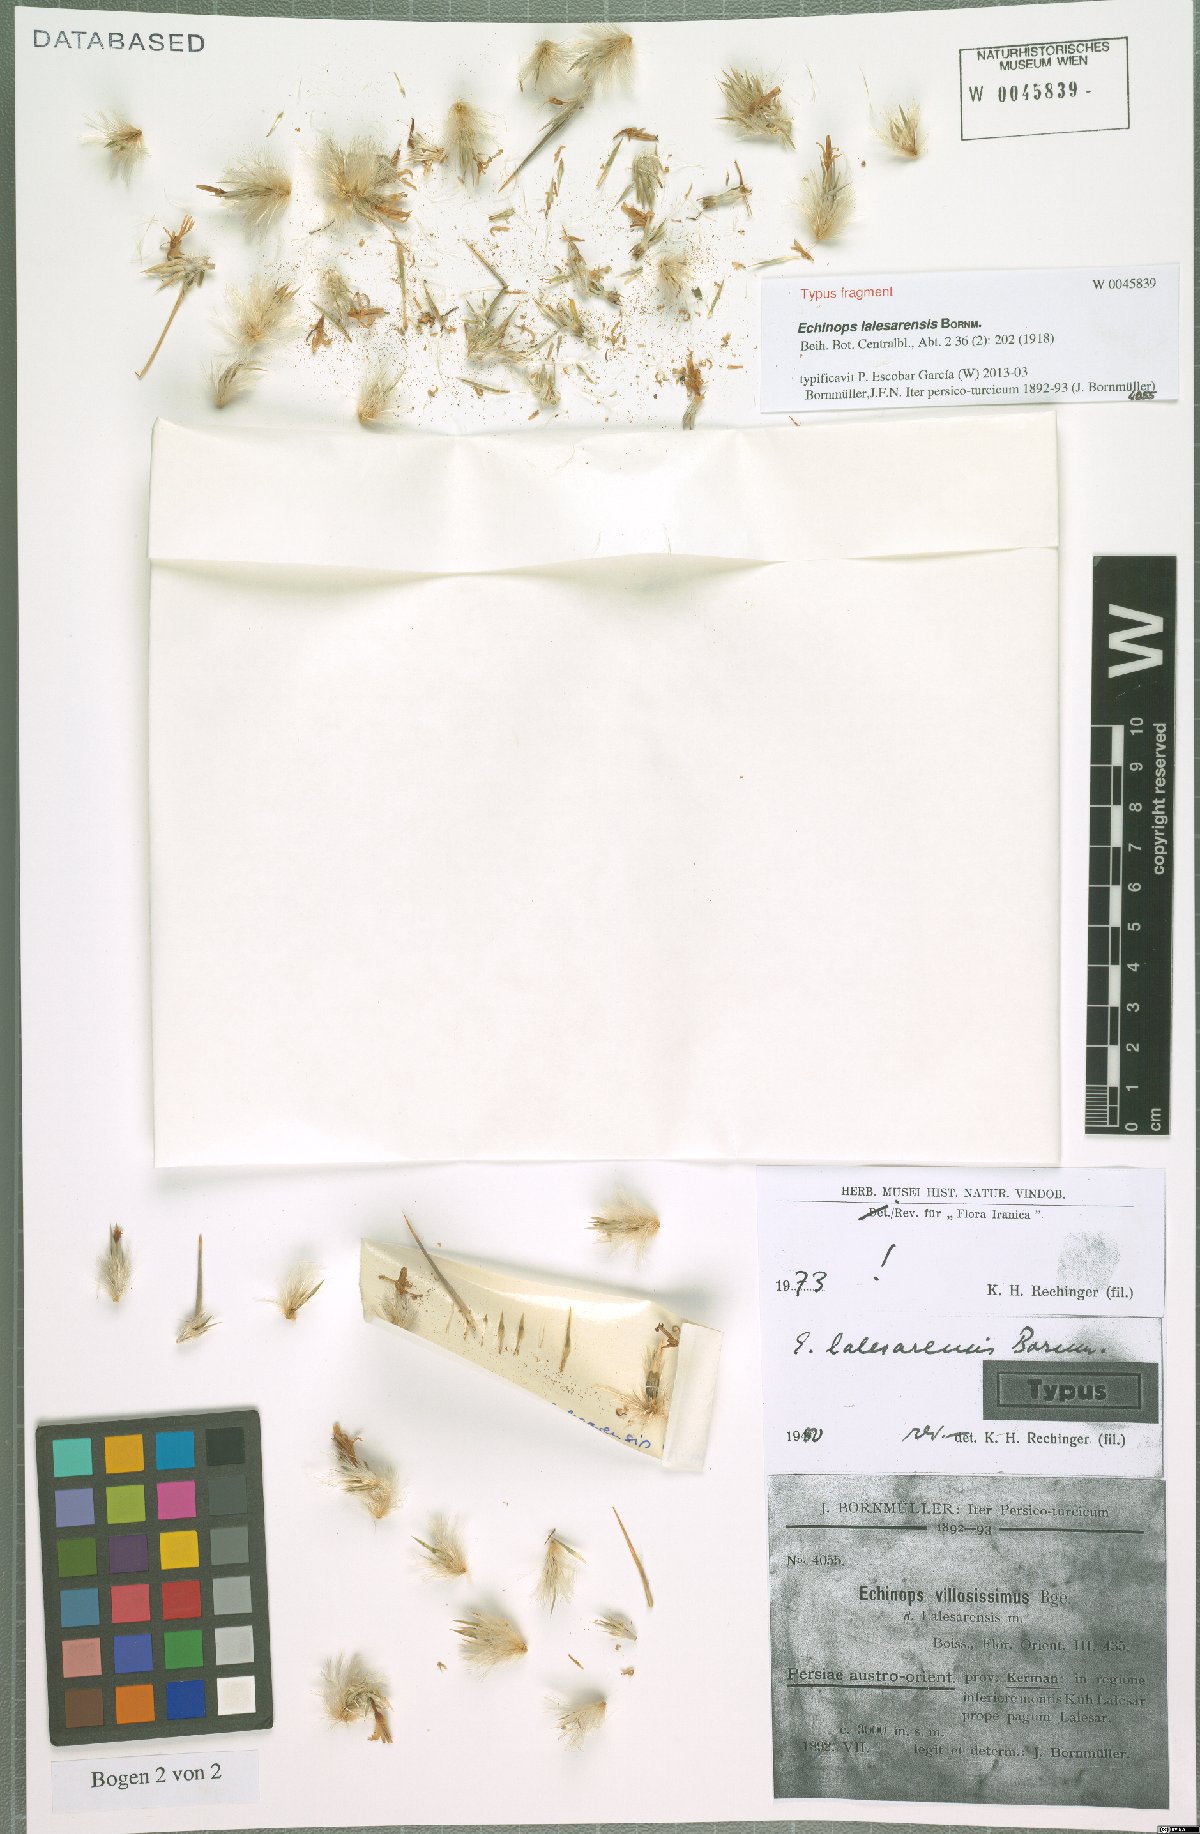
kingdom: Plantae
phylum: Tracheophyta
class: Magnoliopsida
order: Asterales
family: Asteraceae
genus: Echinops
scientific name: Echinops lalesarensis
